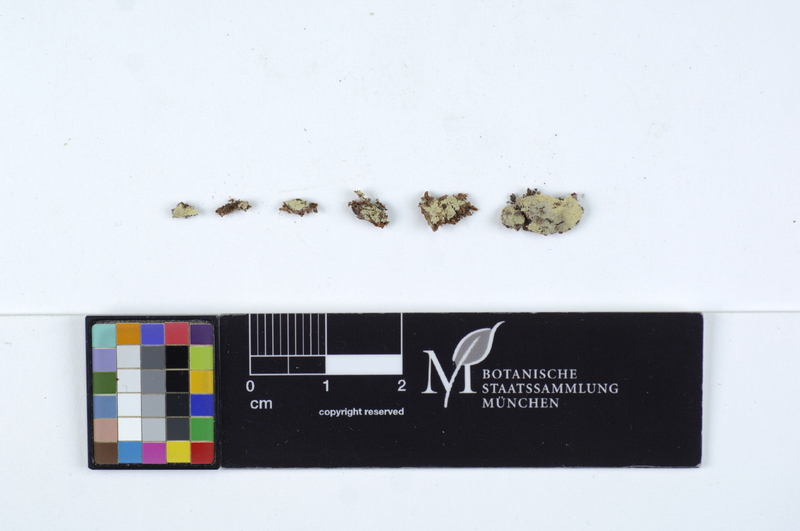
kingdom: Plantae
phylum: Tracheophyta
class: Pinopsida
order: Pinales
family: Pinaceae
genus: Pinus
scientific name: Pinus
